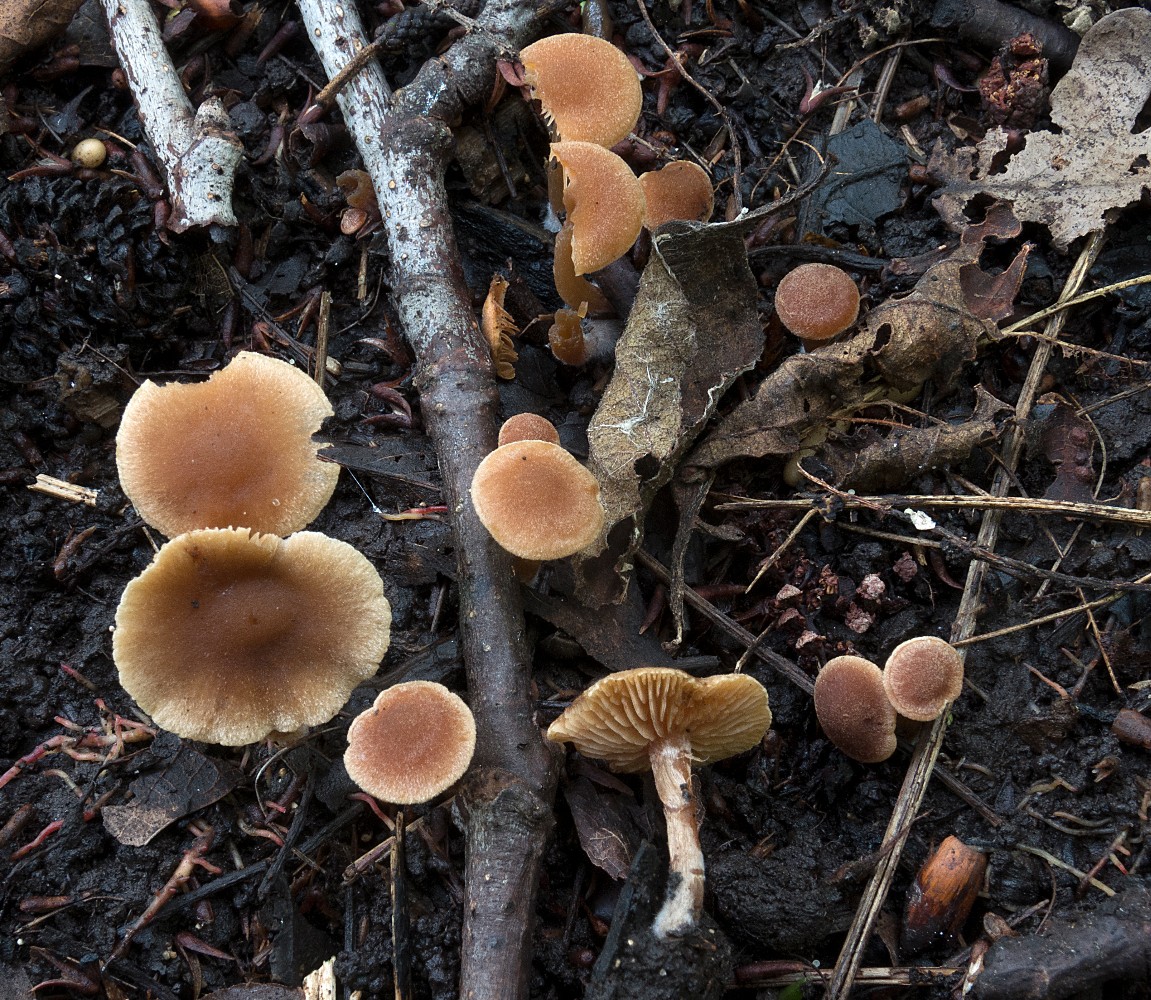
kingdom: Fungi
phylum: Basidiomycota
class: Agaricomycetes
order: Agaricales
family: Hymenogastraceae
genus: Naucoria
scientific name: Naucoria subconspersa
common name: filtet knaphat
